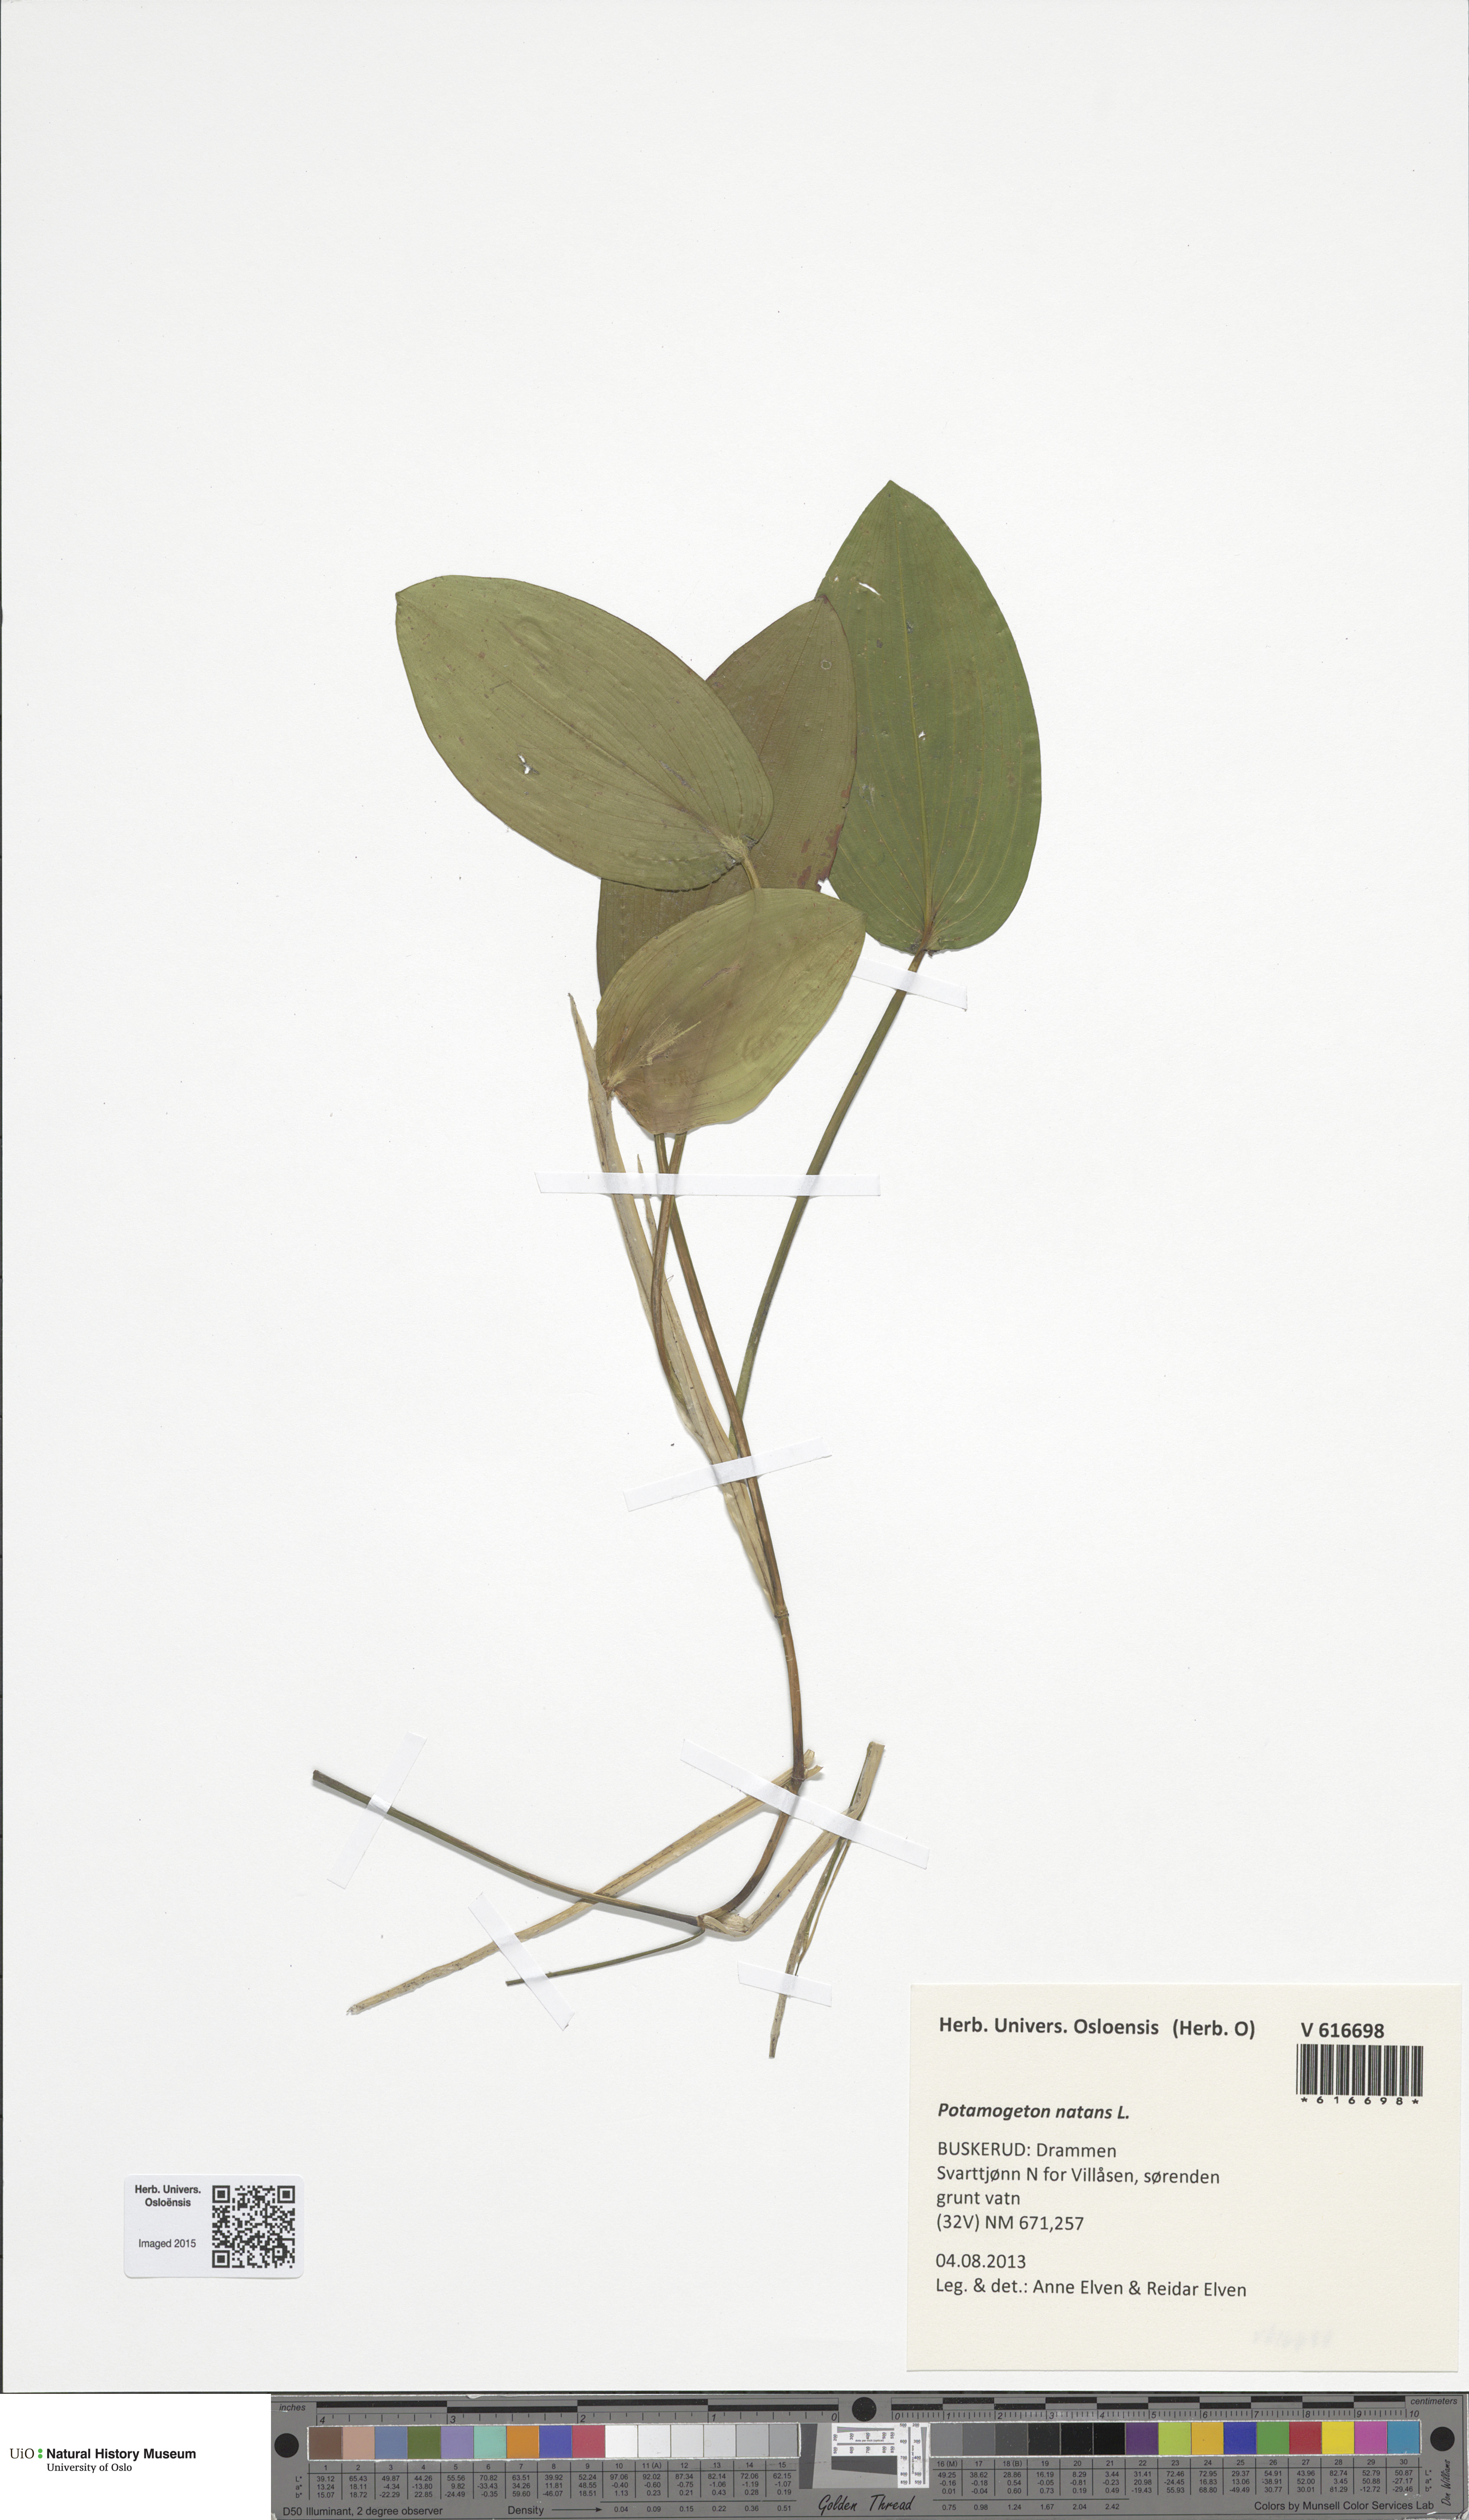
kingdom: Plantae
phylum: Tracheophyta
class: Liliopsida
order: Alismatales
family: Potamogetonaceae
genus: Potamogeton
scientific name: Potamogeton natans
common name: Broad-leaved pondweed
